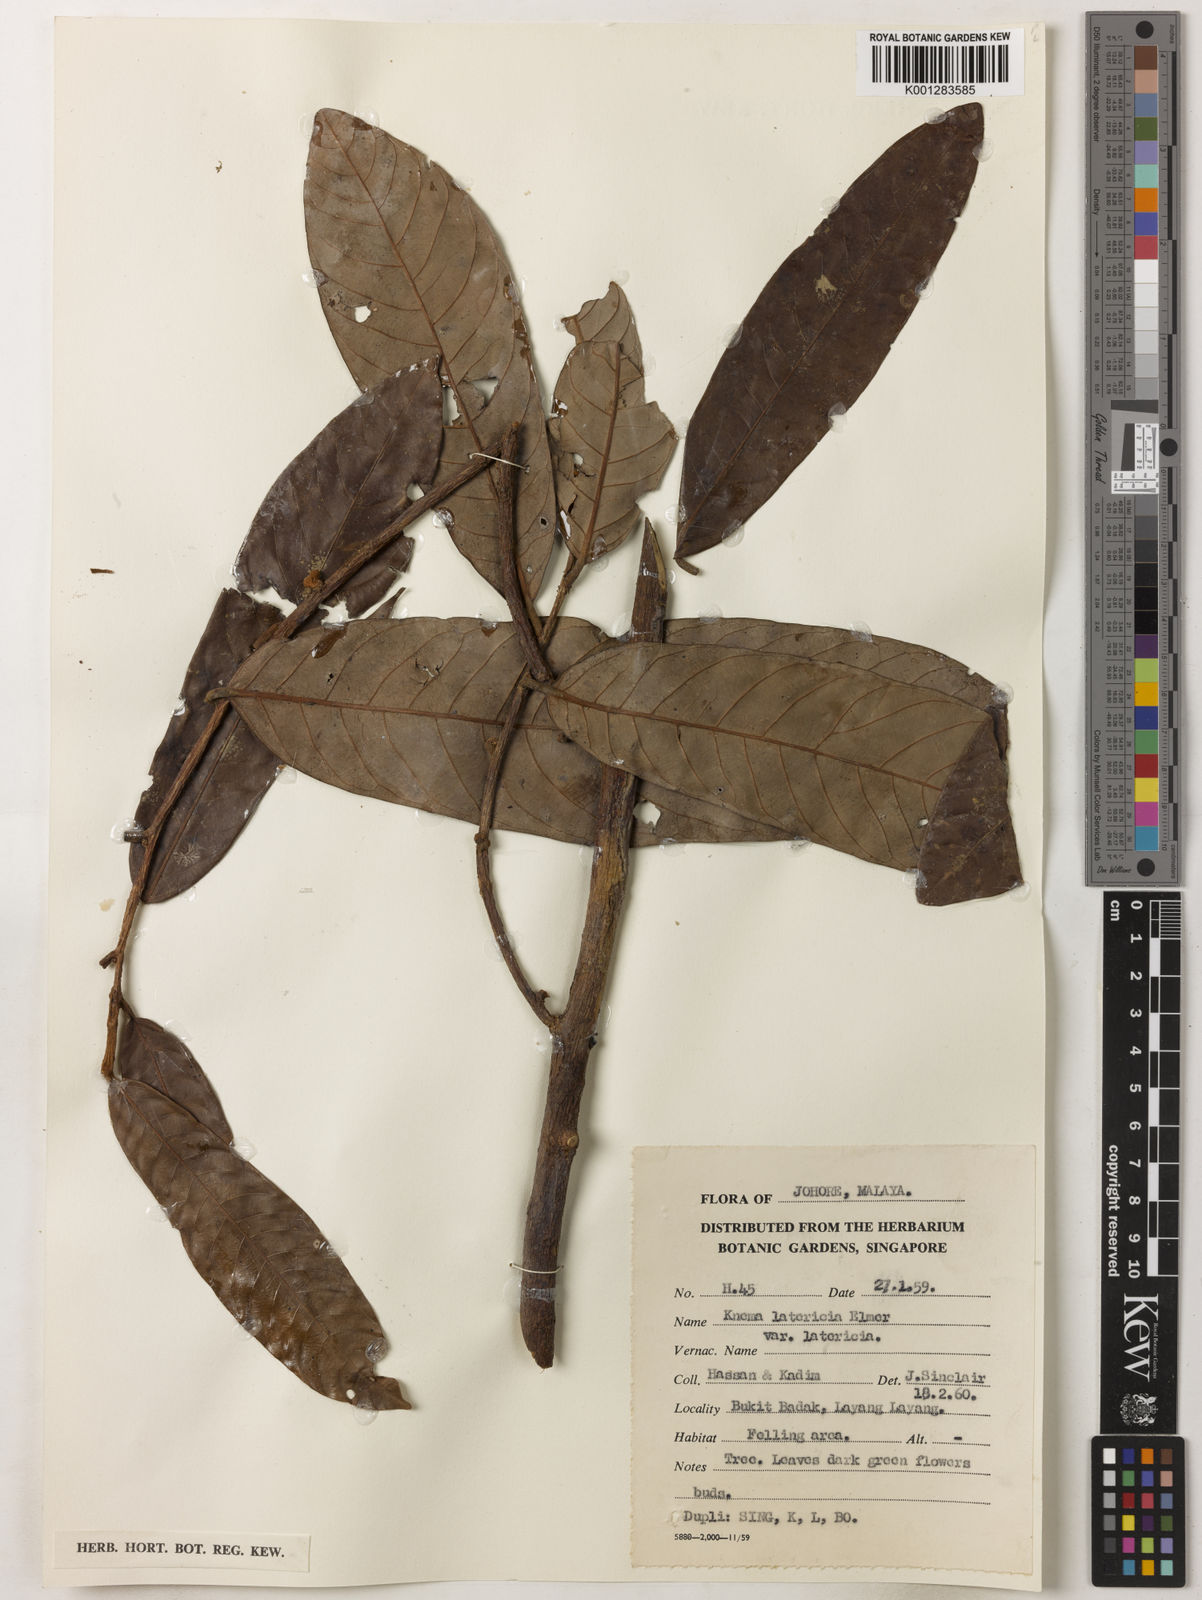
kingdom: Plantae
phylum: Tracheophyta
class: Magnoliopsida
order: Magnoliales
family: Myristicaceae
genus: Knema
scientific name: Knema latericia
